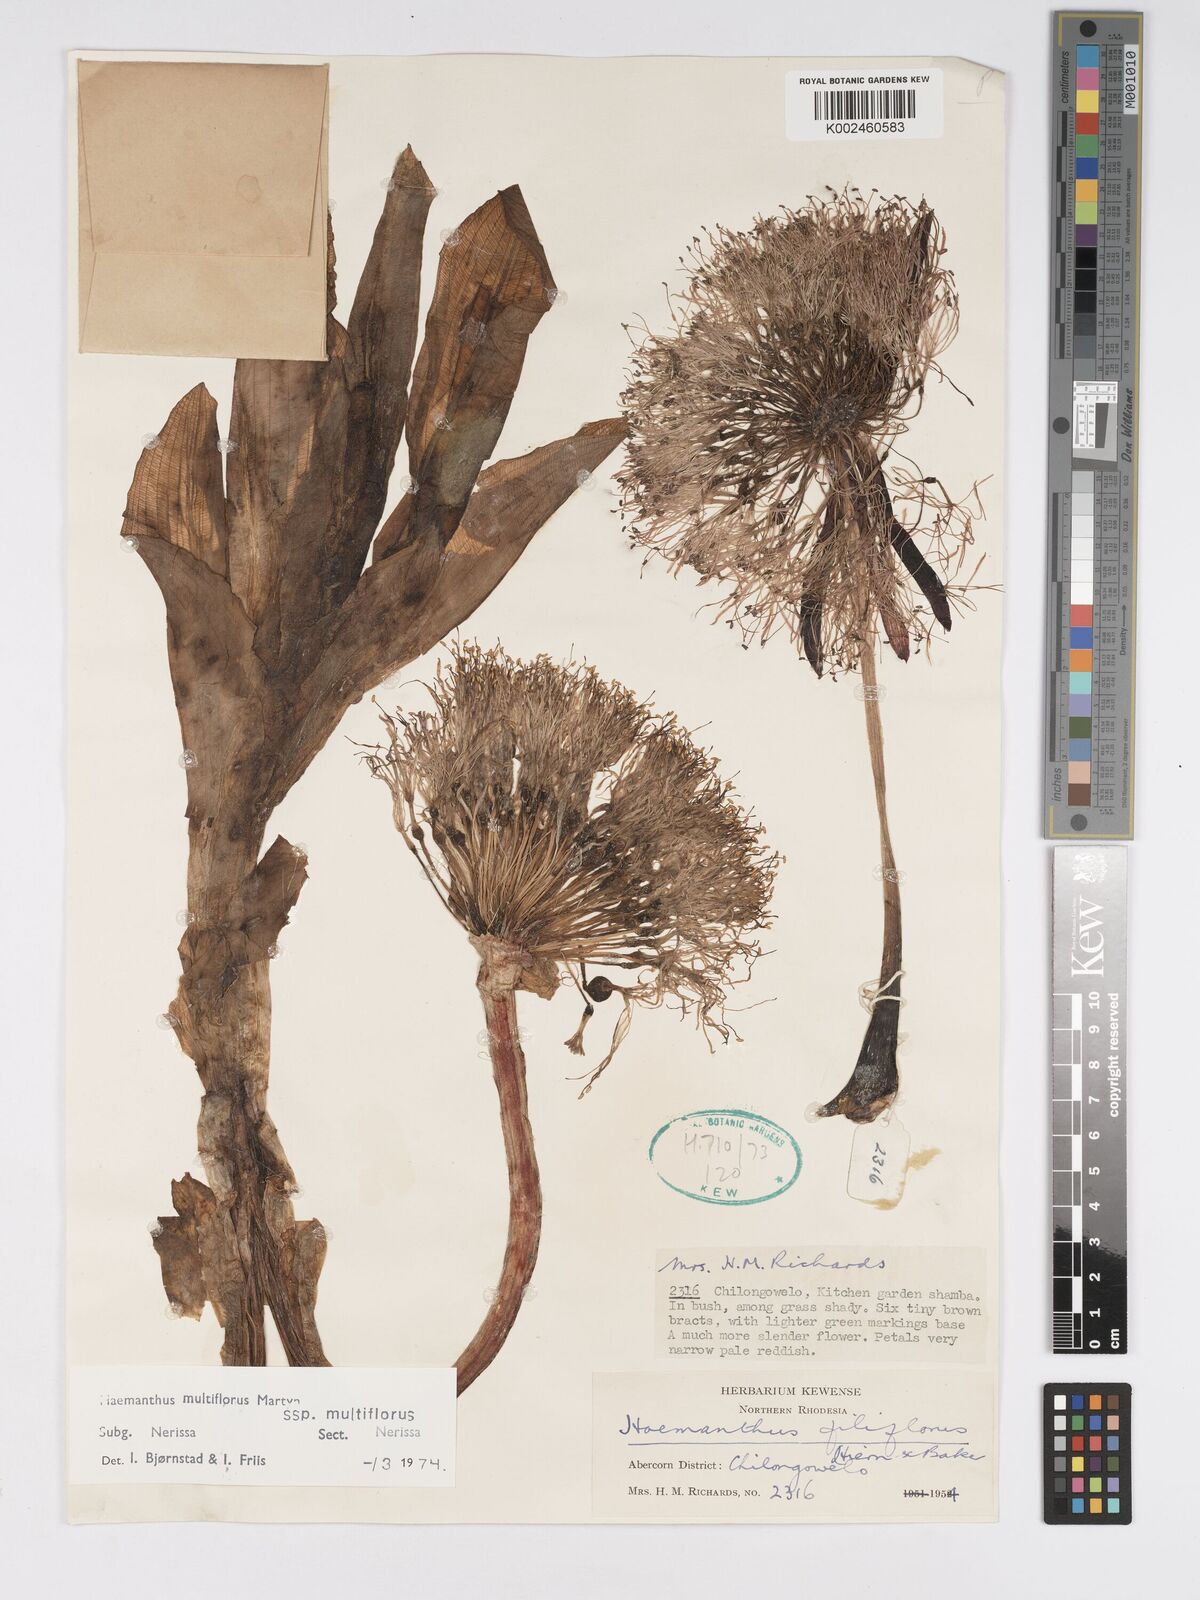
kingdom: Plantae
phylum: Tracheophyta
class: Liliopsida
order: Asparagales
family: Amaryllidaceae
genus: Scadoxus
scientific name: Scadoxus multiflorus
